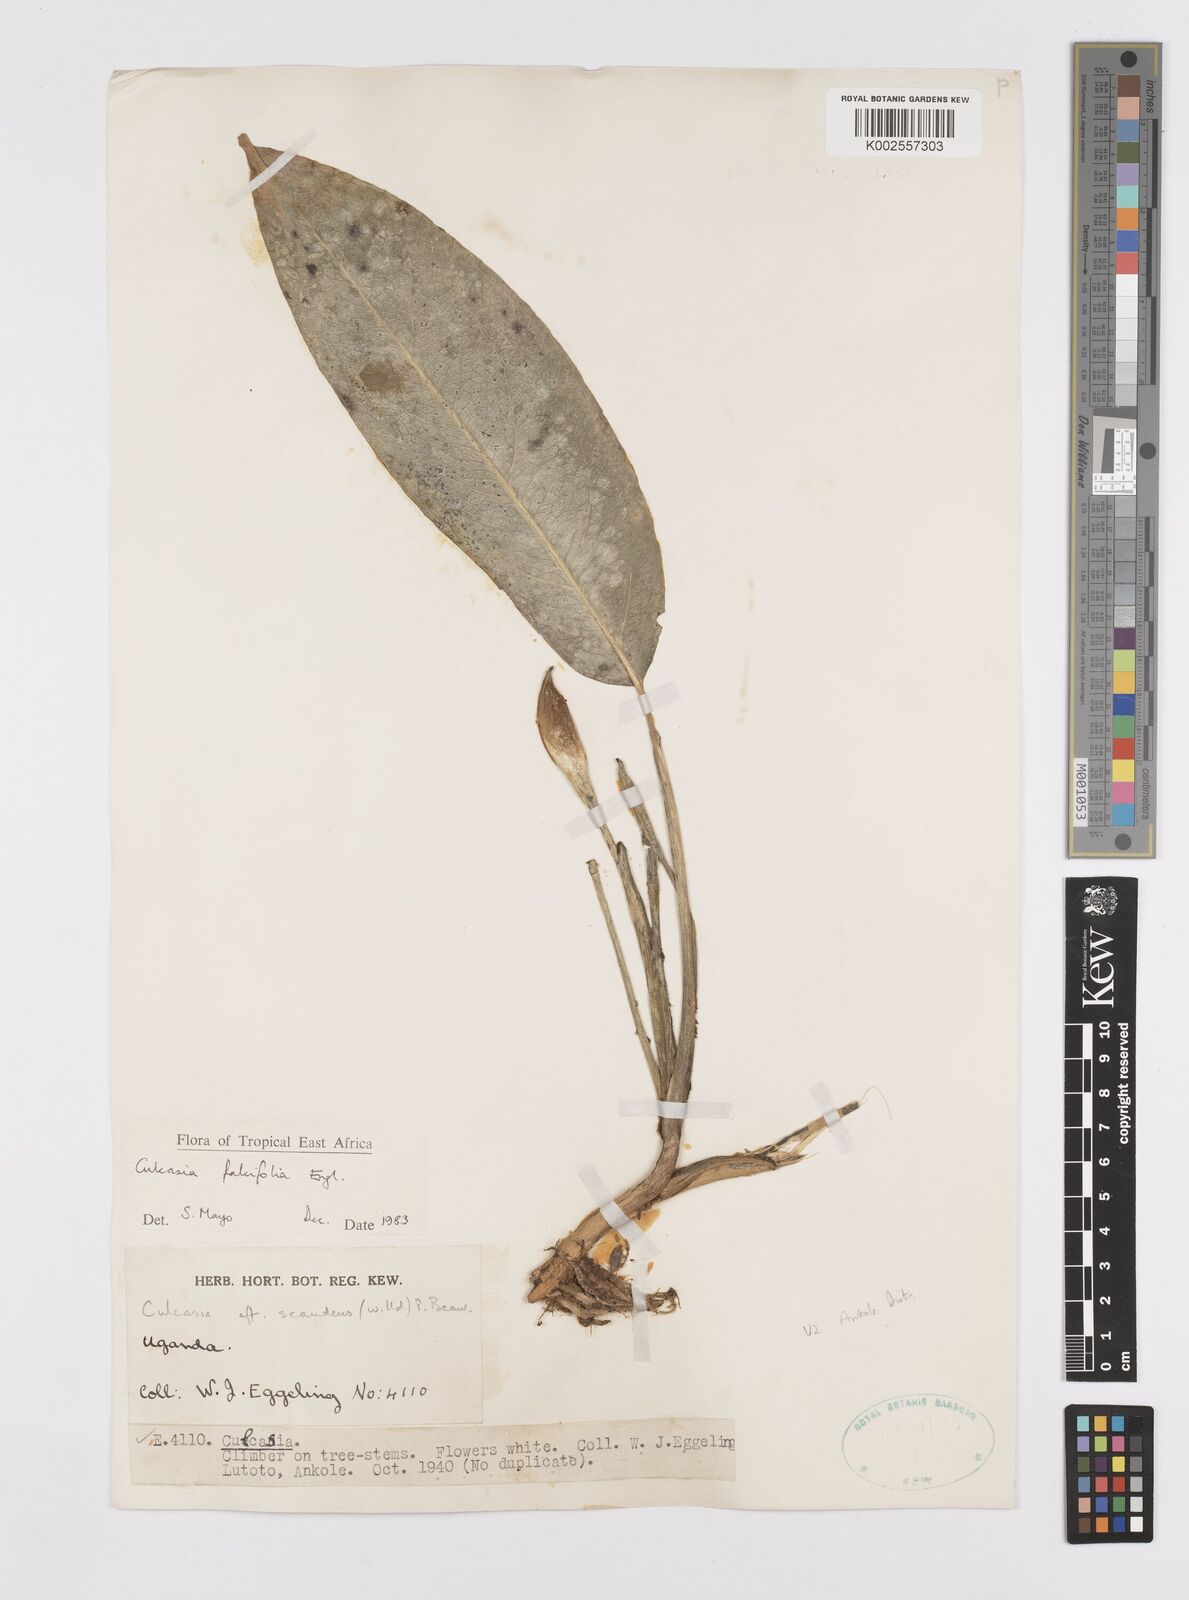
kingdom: Plantae
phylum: Tracheophyta
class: Liliopsida
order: Alismatales
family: Araceae
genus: Culcasia
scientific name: Culcasia falcifolia
